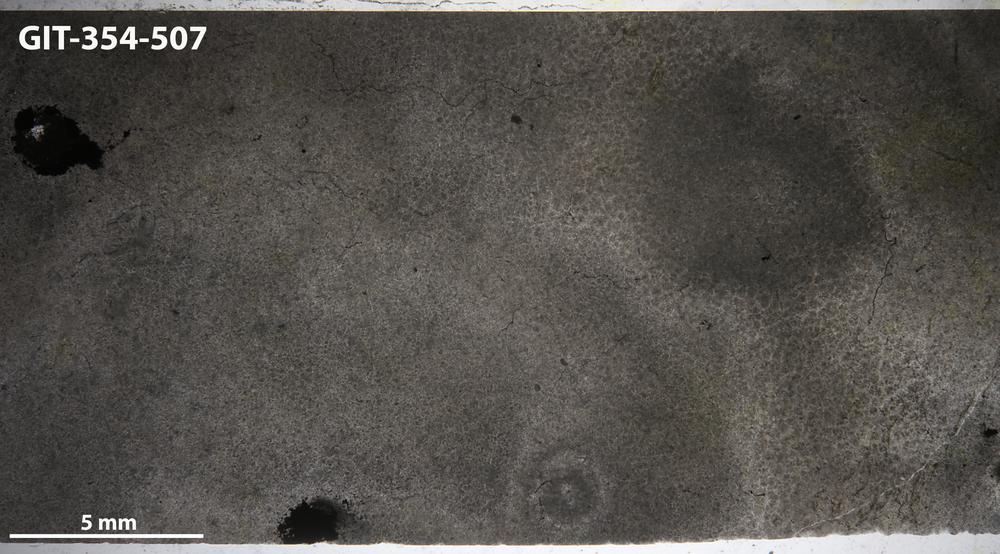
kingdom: Animalia
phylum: Porifera
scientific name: Porifera
